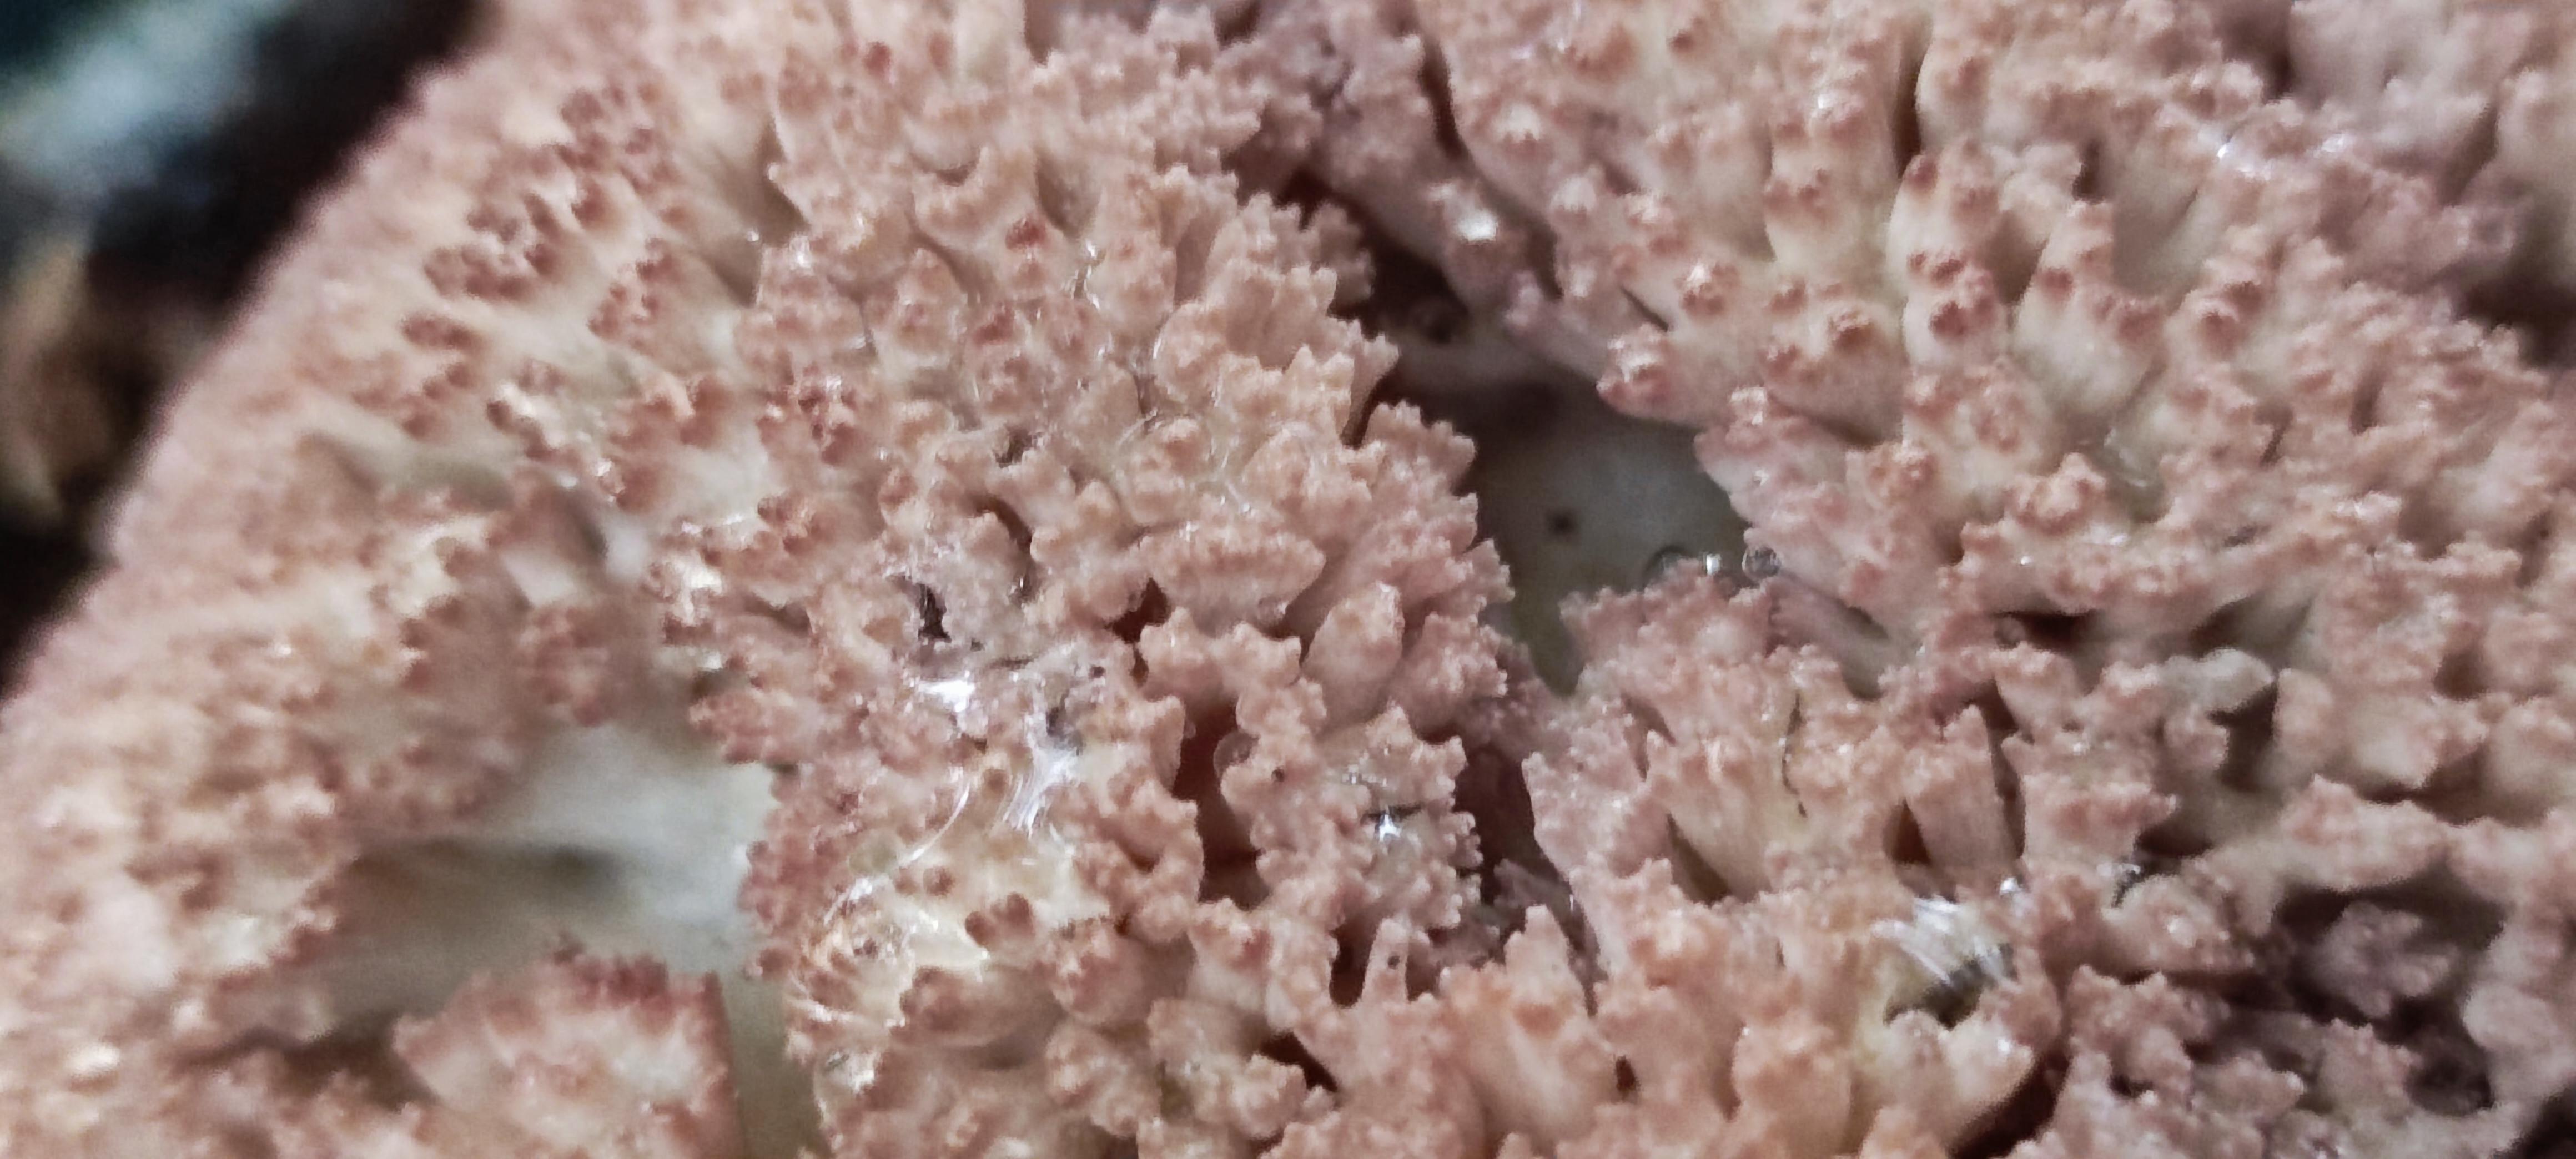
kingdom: Fungi
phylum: Basidiomycota
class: Agaricomycetes
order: Gomphales
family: Gomphaceae
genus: Ramaria
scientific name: Ramaria botrytis
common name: drue-koralsvamp
